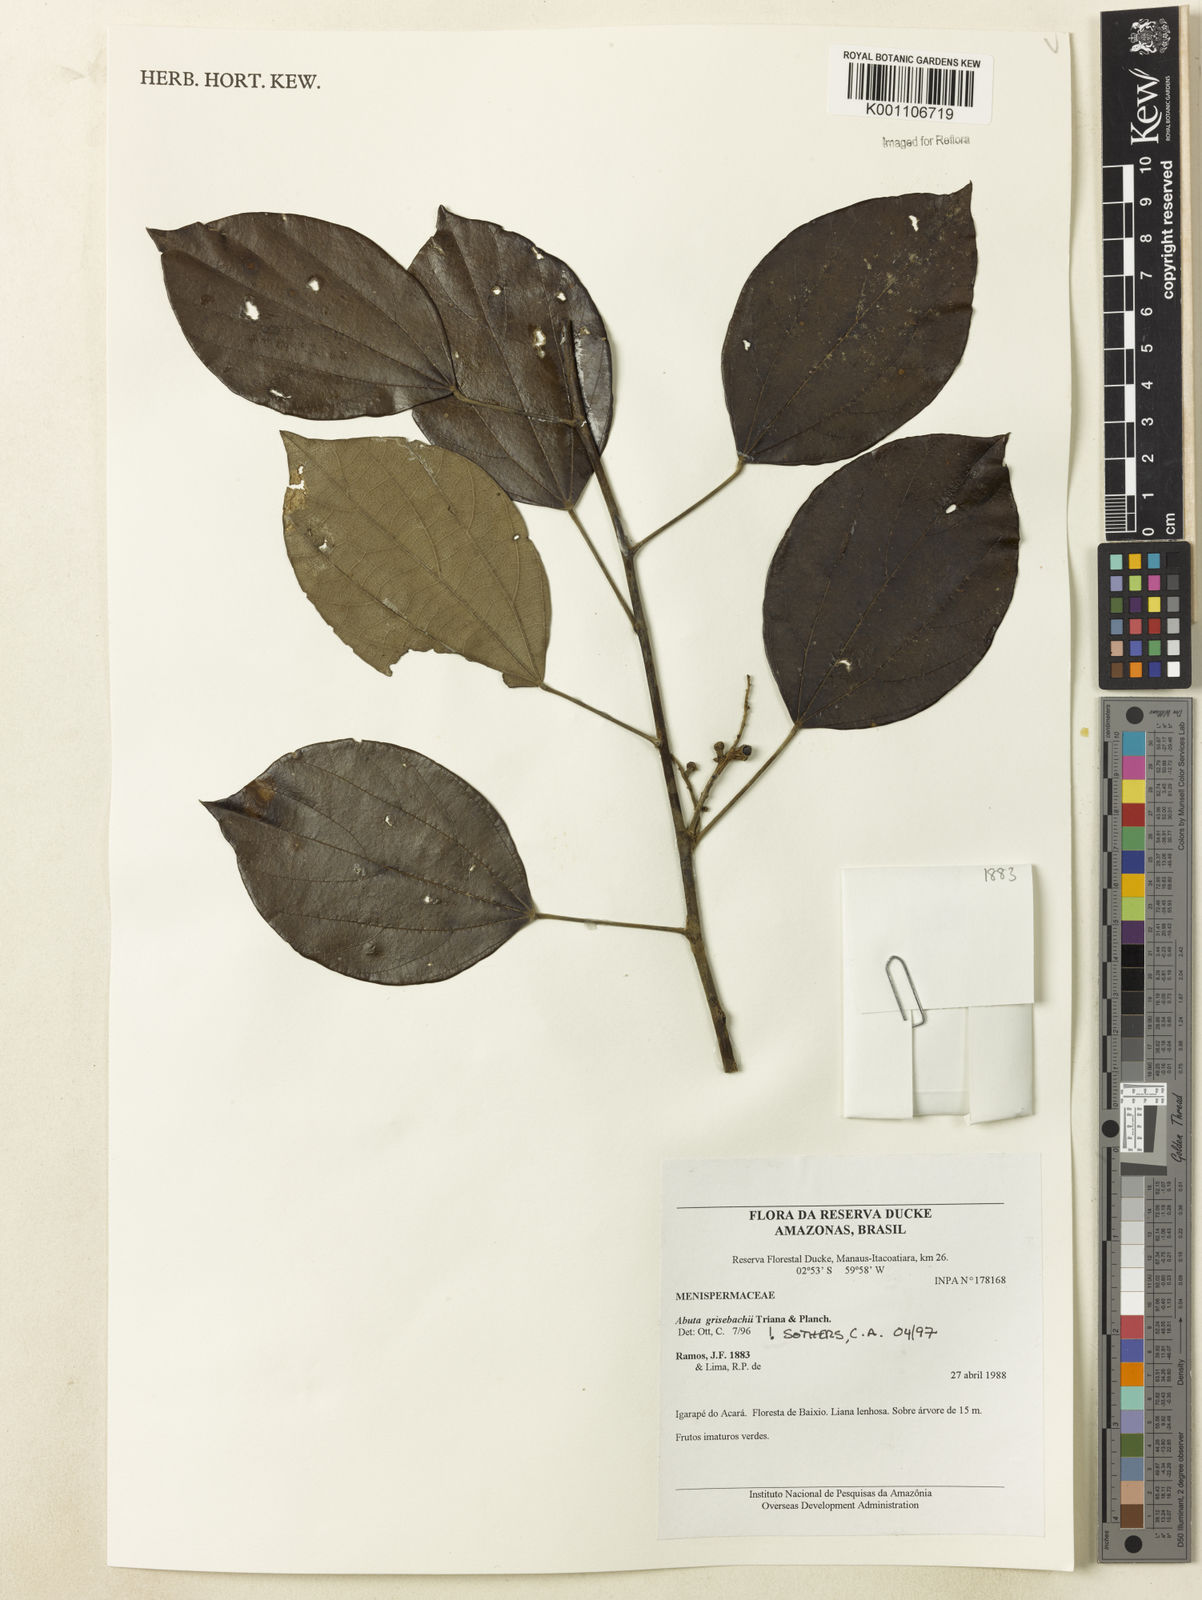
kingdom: Plantae
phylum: Tracheophyta
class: Magnoliopsida
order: Ranunculales
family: Menispermaceae
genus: Abuta
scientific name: Abuta grisebachii
